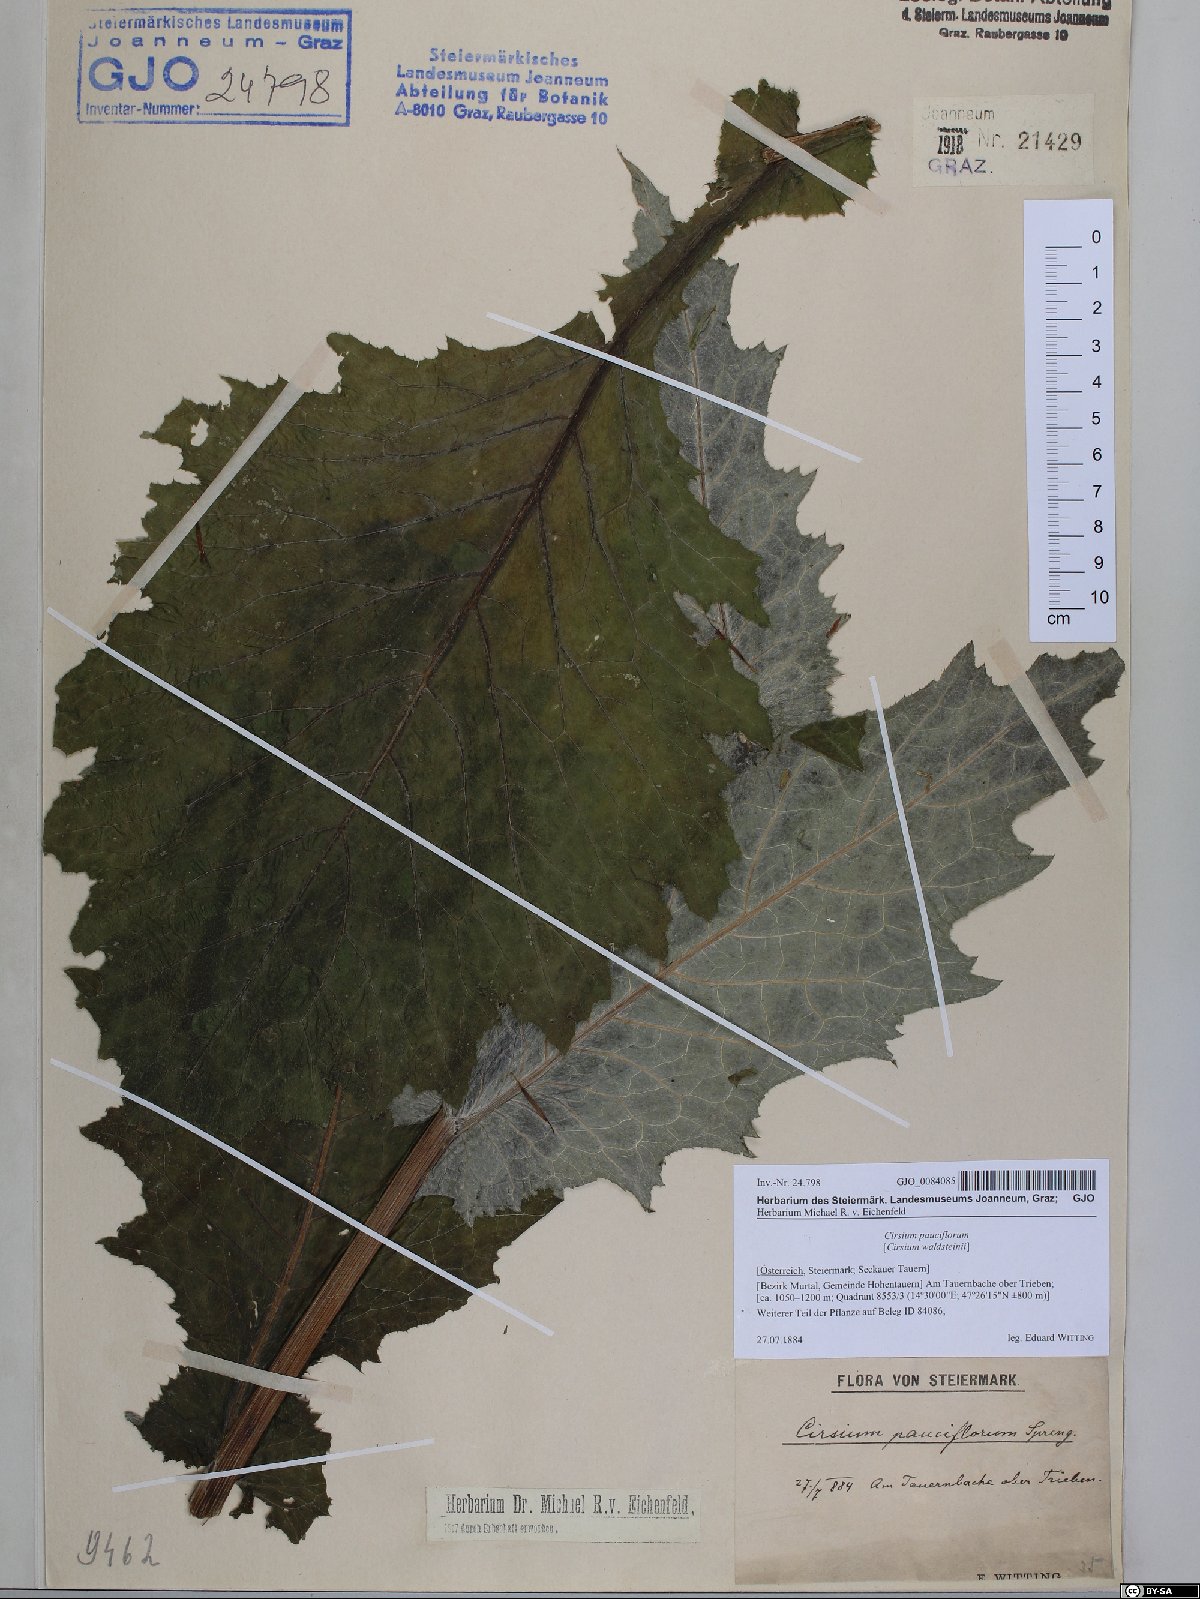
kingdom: Plantae
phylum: Tracheophyta
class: Magnoliopsida
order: Asterales
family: Asteraceae
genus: Cirsium
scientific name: Cirsium greimleri
